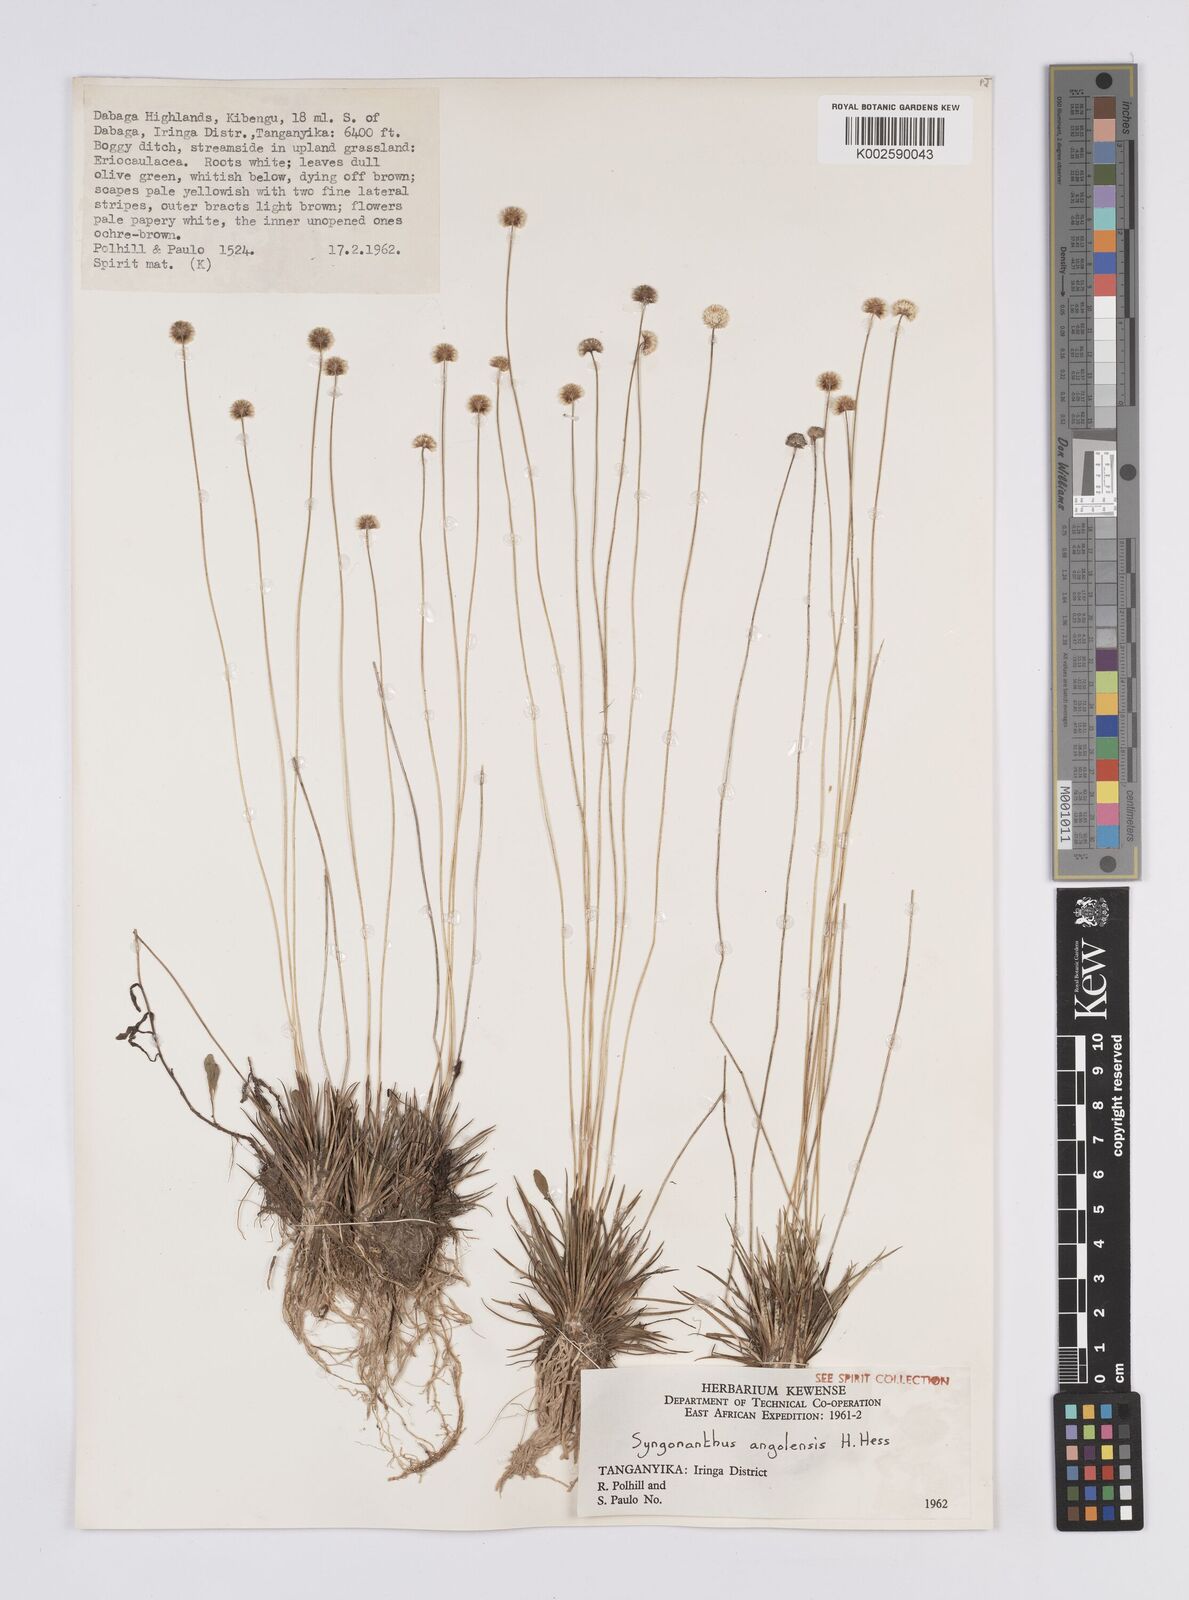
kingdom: Plantae
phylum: Tracheophyta
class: Liliopsida
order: Poales
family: Eriocaulaceae
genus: Syngonanthus
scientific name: Syngonanthus angolensis
